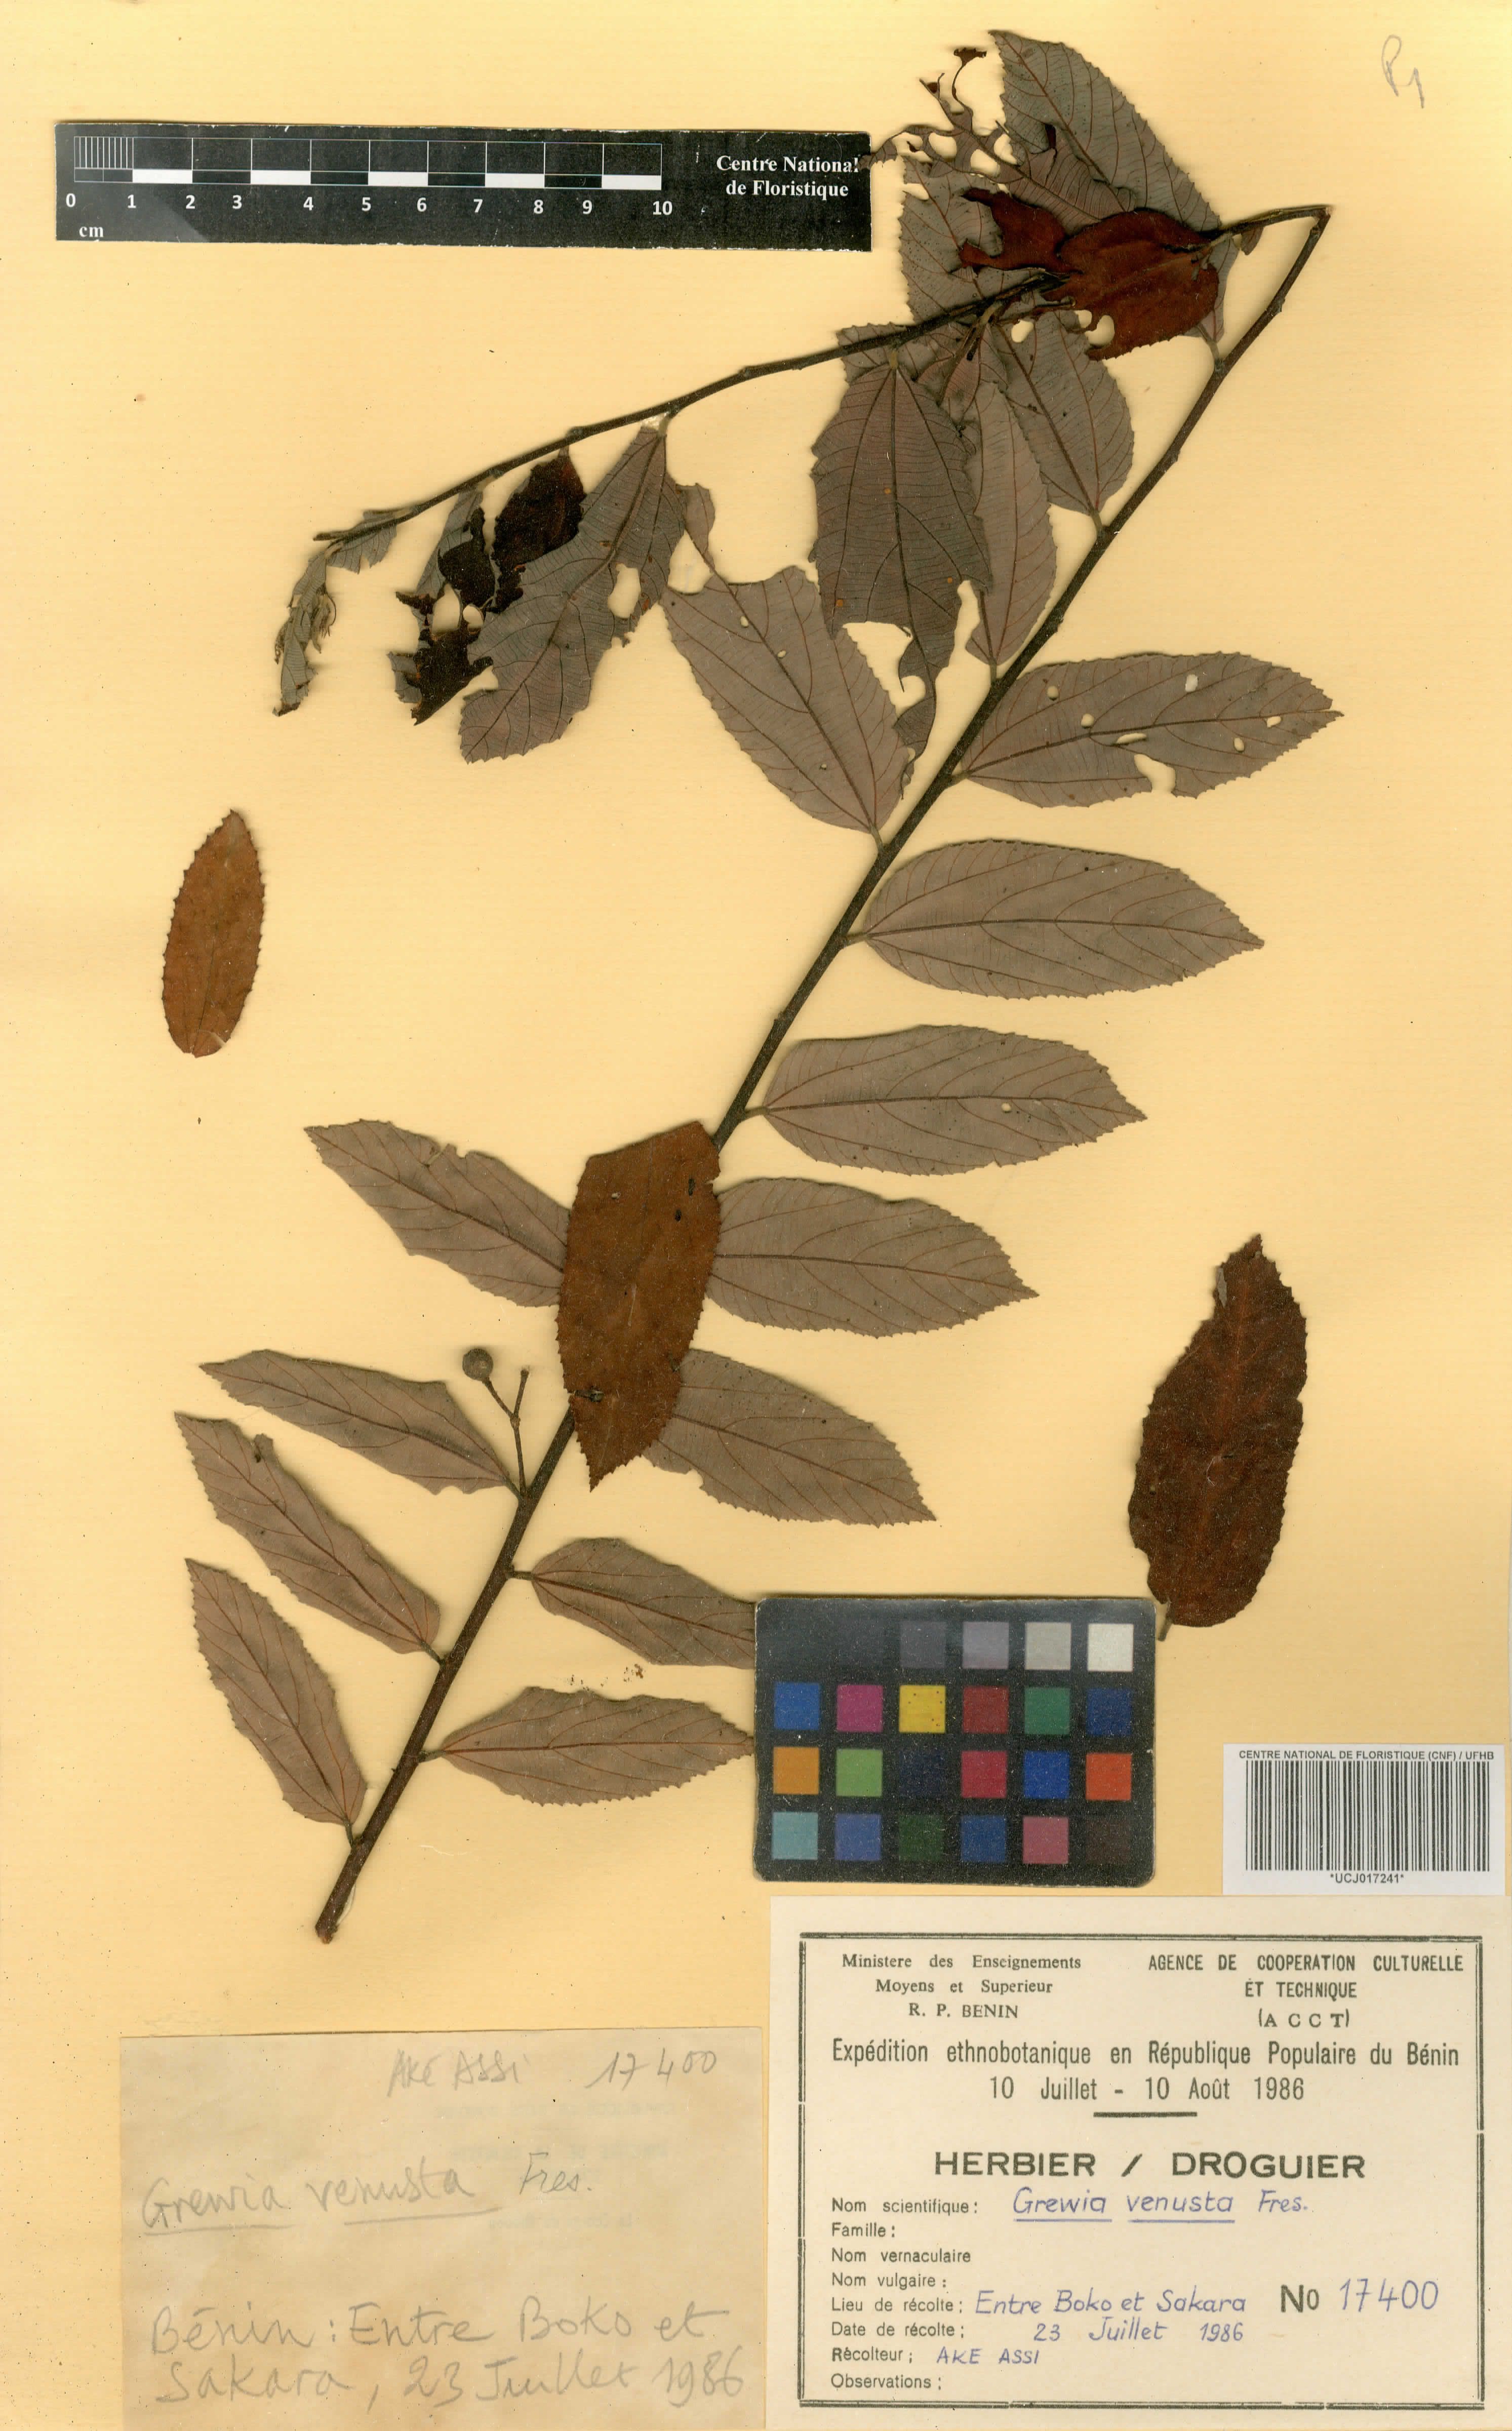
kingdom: Plantae
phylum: Tracheophyta
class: Magnoliopsida
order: Malvales
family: Malvaceae
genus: Grewia
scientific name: Grewia mollis
